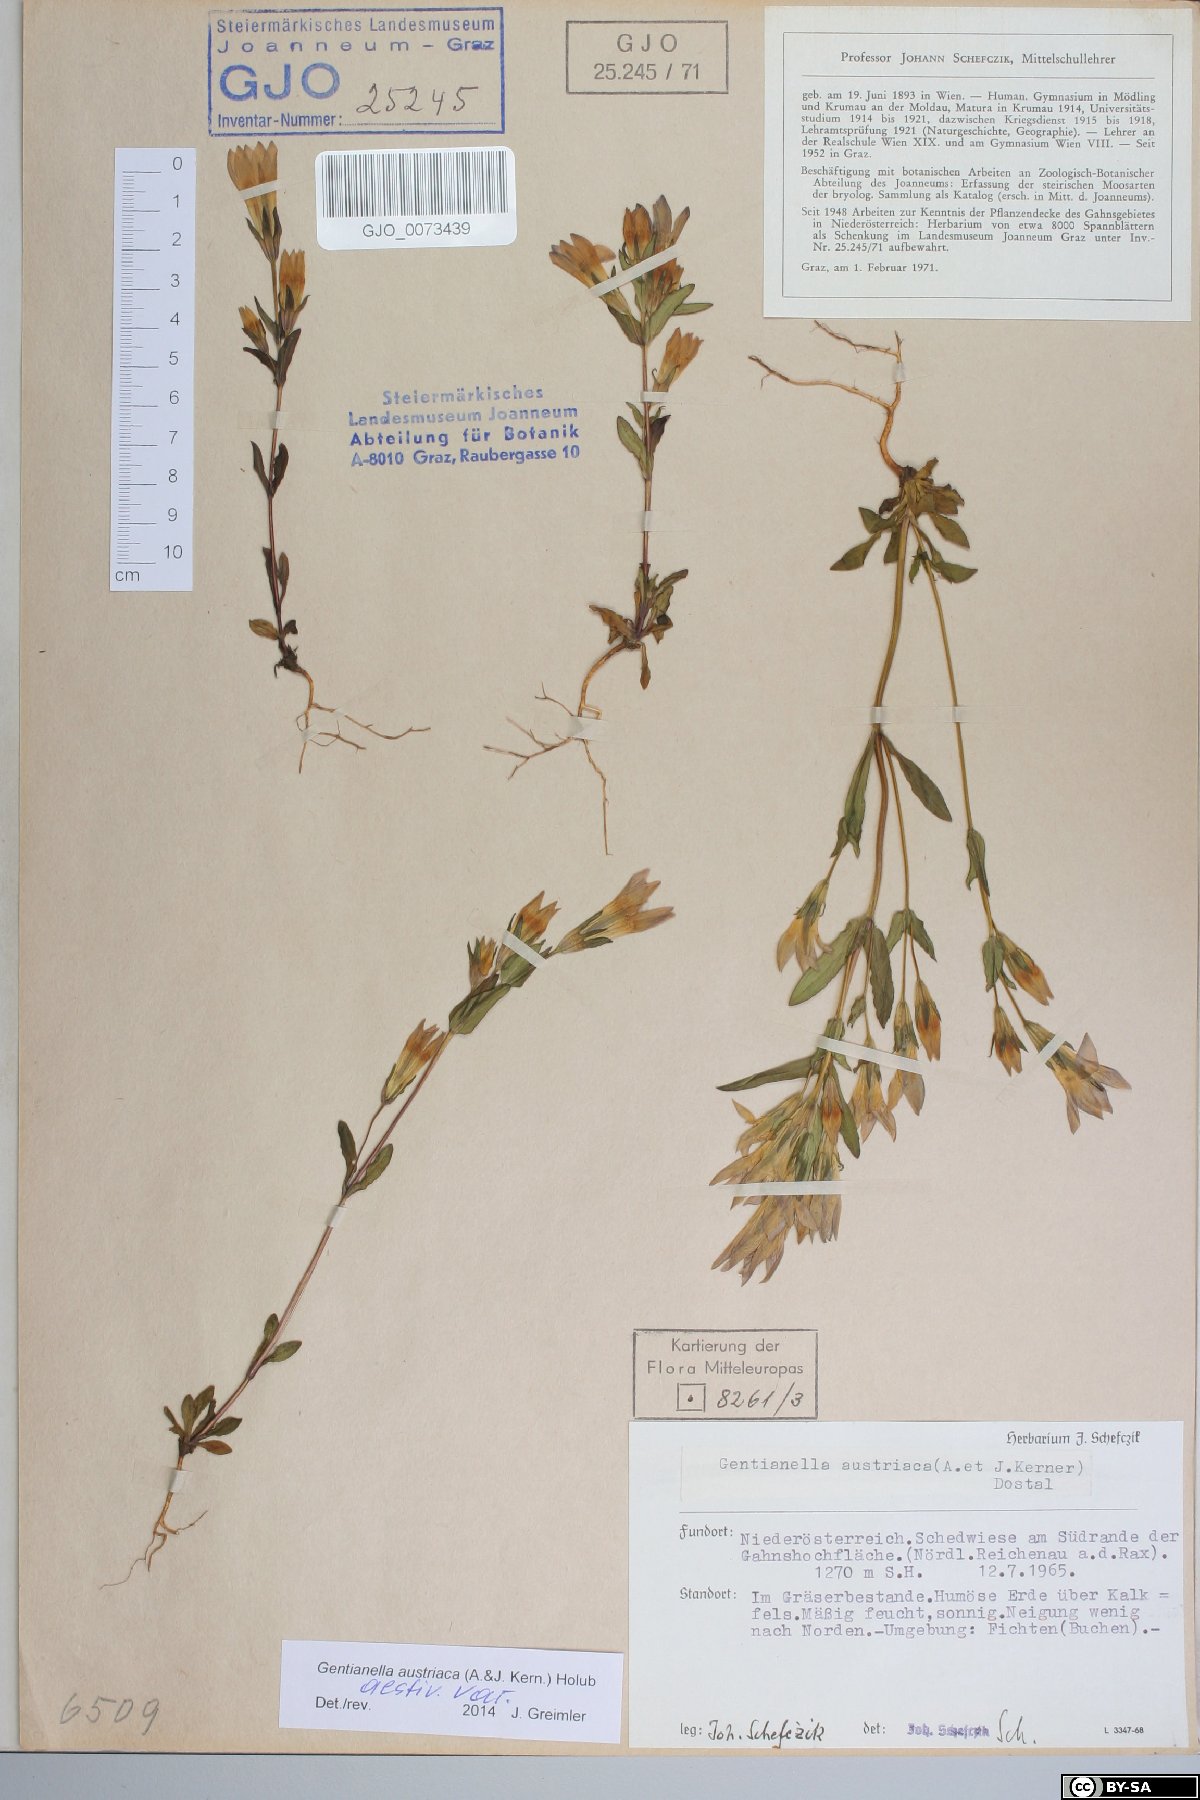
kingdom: Plantae
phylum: Tracheophyta
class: Magnoliopsida
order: Gentianales
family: Gentianaceae
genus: Gentianella
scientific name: Gentianella austriaca
